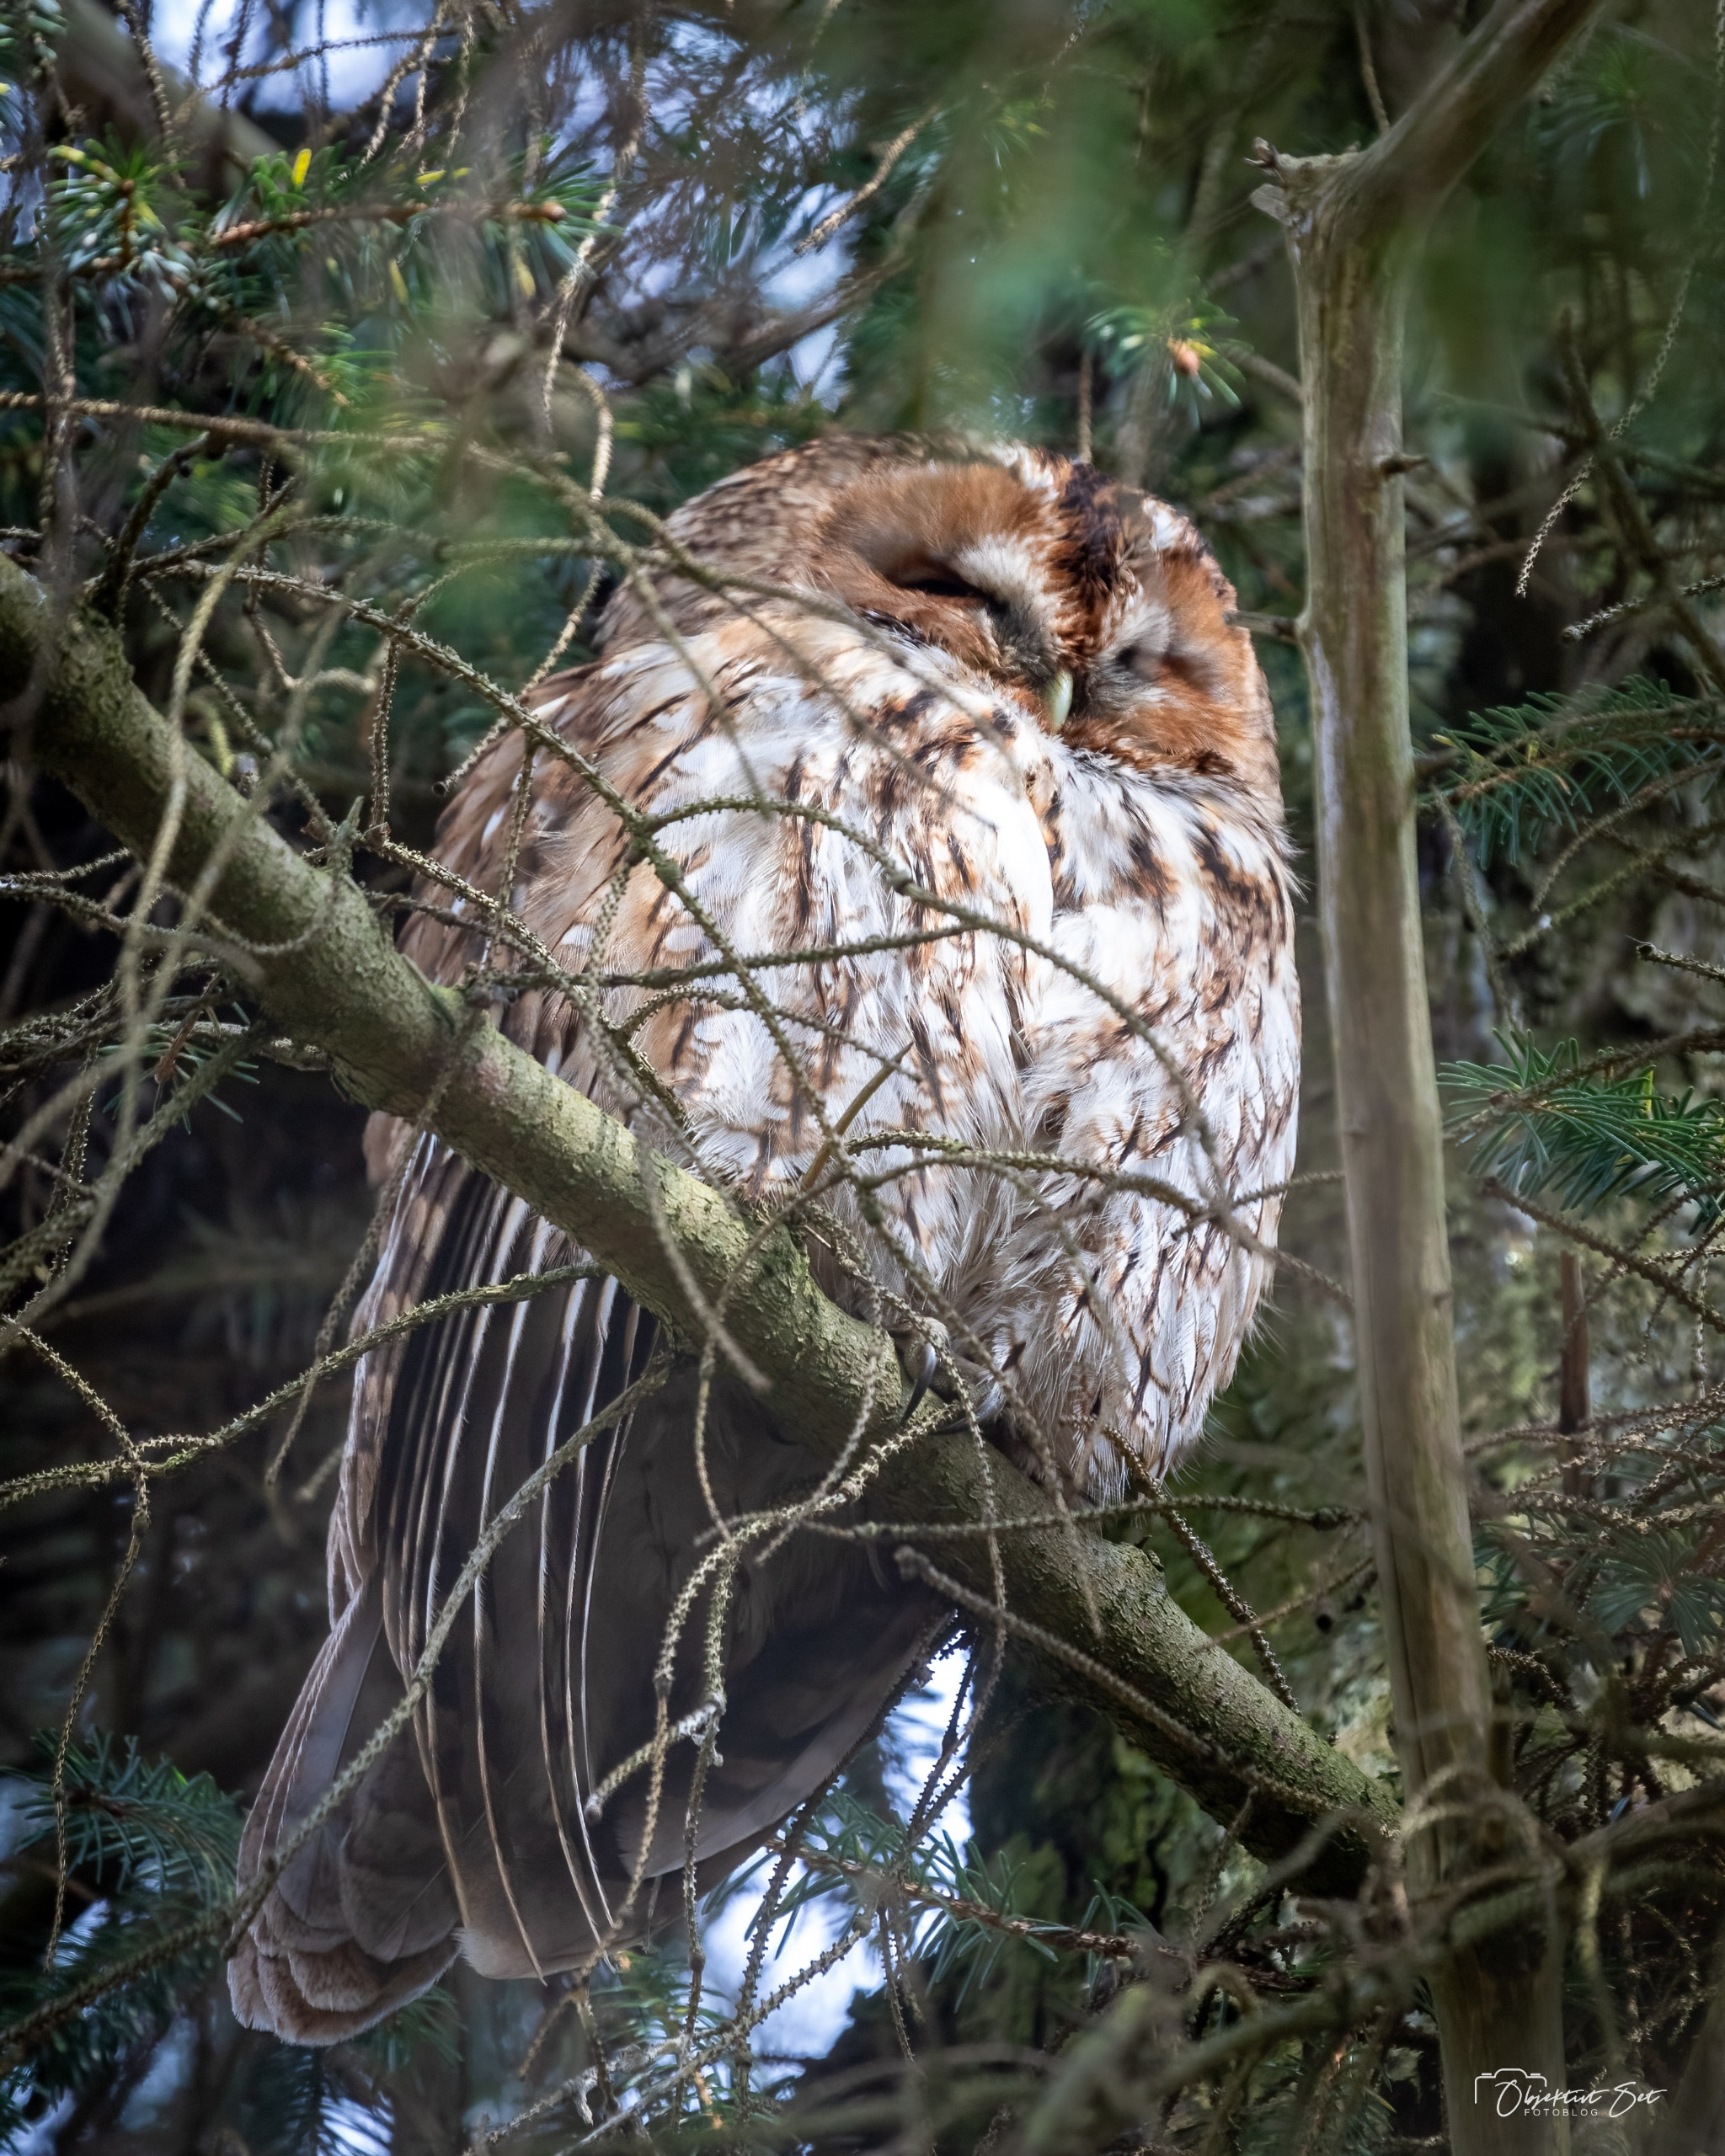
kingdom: Animalia
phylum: Chordata
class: Aves
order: Strigiformes
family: Strigidae
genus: Strix
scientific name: Strix aluco
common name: Natugle
